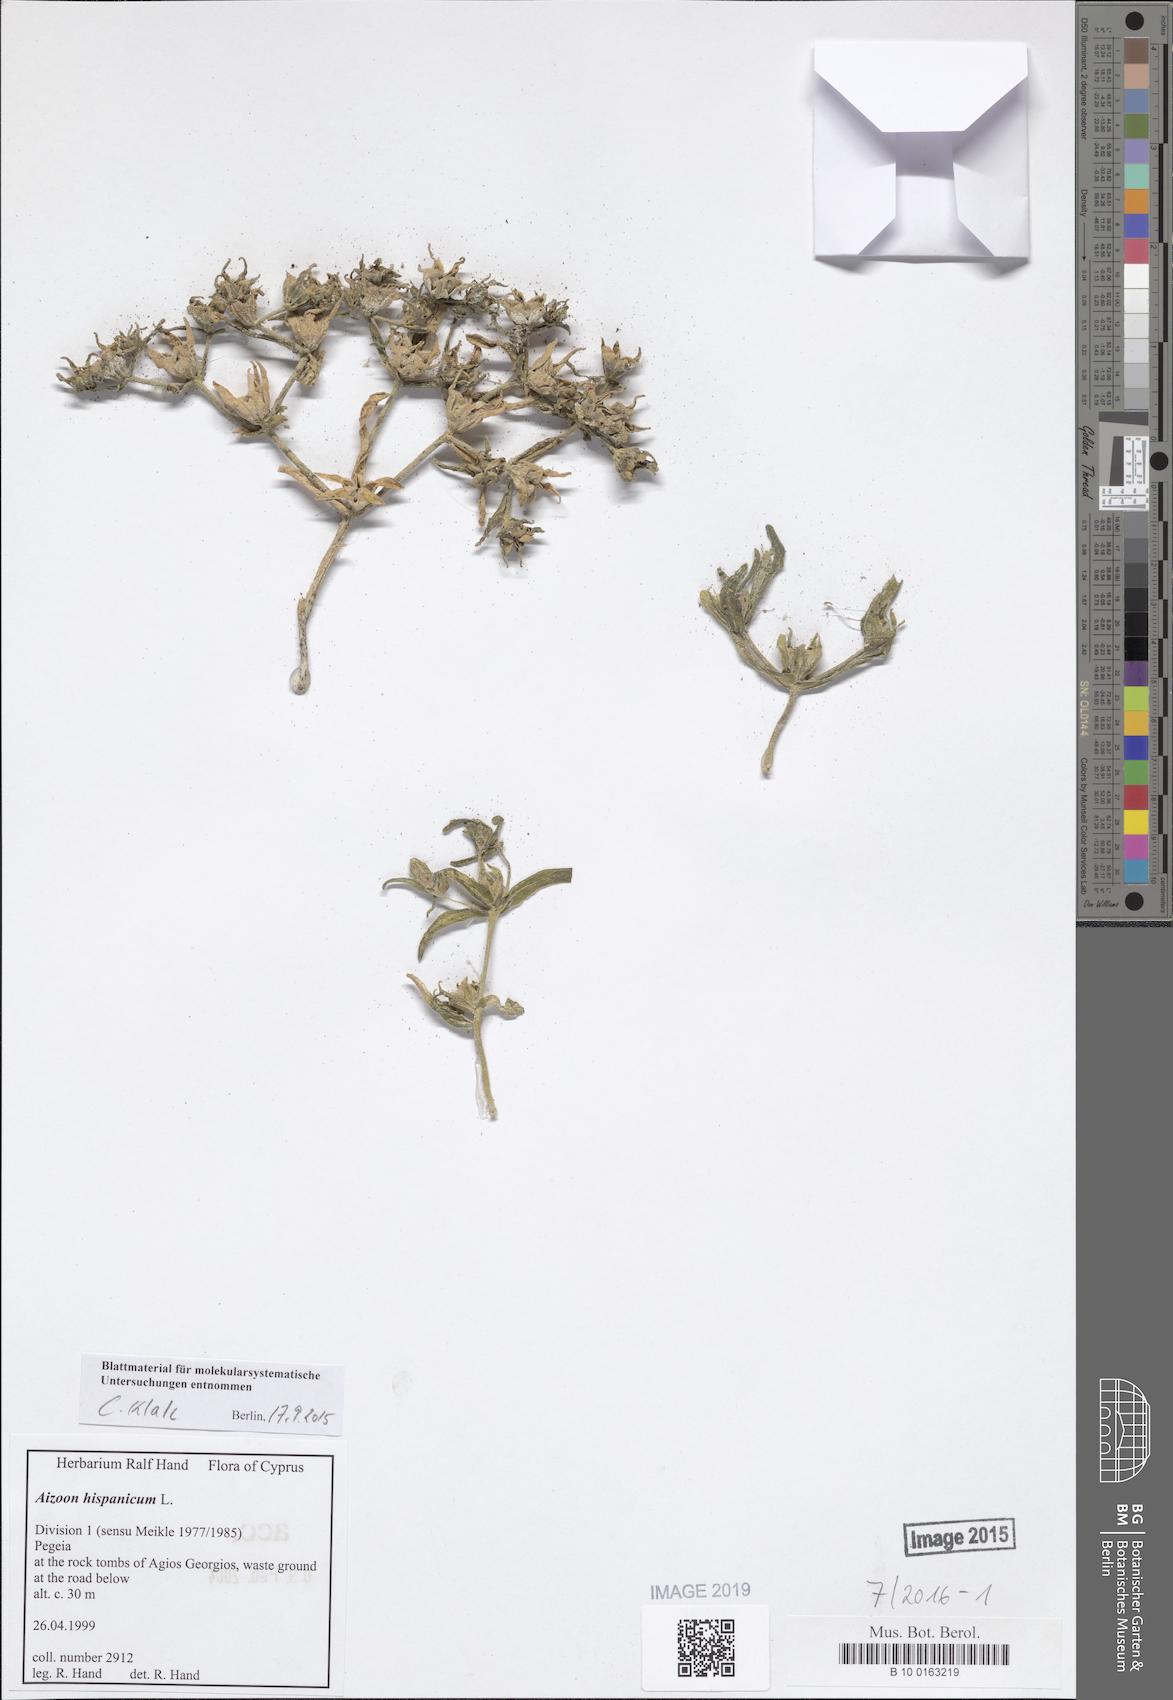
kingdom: Plantae
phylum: Tracheophyta
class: Magnoliopsida
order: Caryophyllales
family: Aizoaceae
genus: Aizoanthemopsis
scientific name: Aizoanthemopsis hispanica
